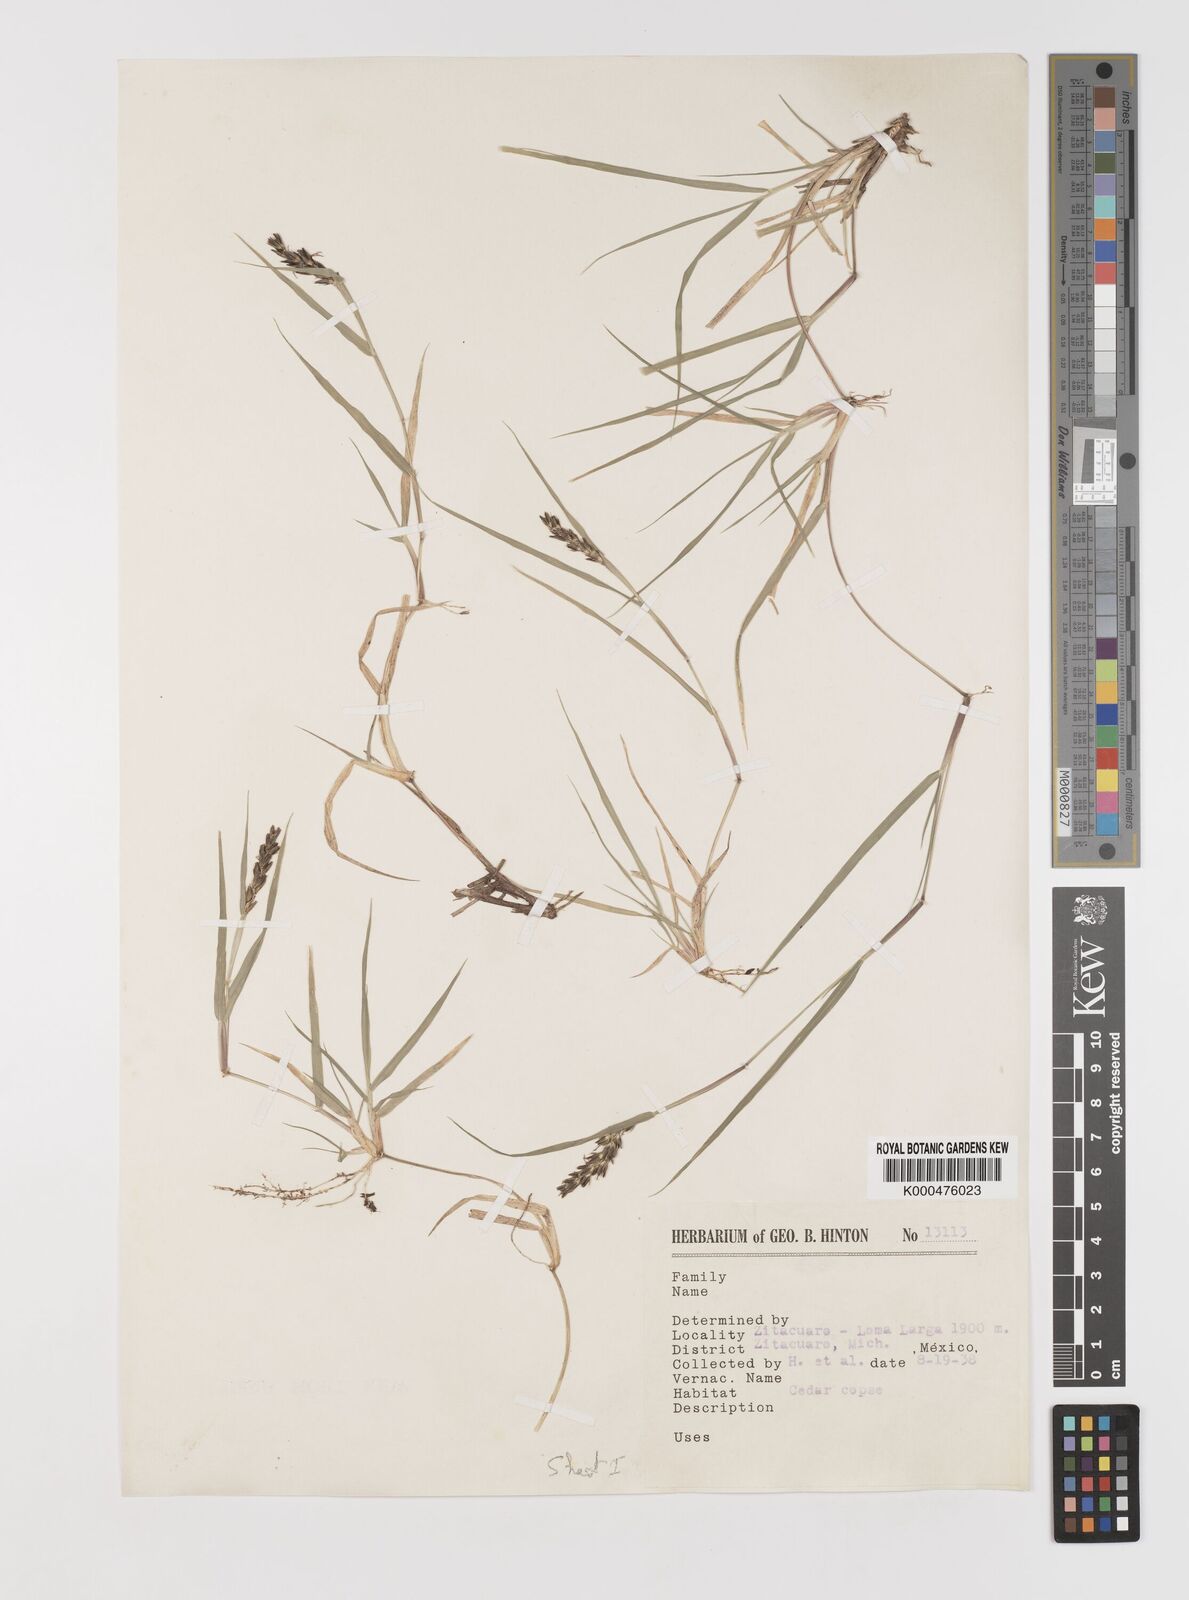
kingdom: Plantae
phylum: Tracheophyta
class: Liliopsida
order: Poales
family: Poaceae
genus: Hilaria
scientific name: Hilaria cenchroides
